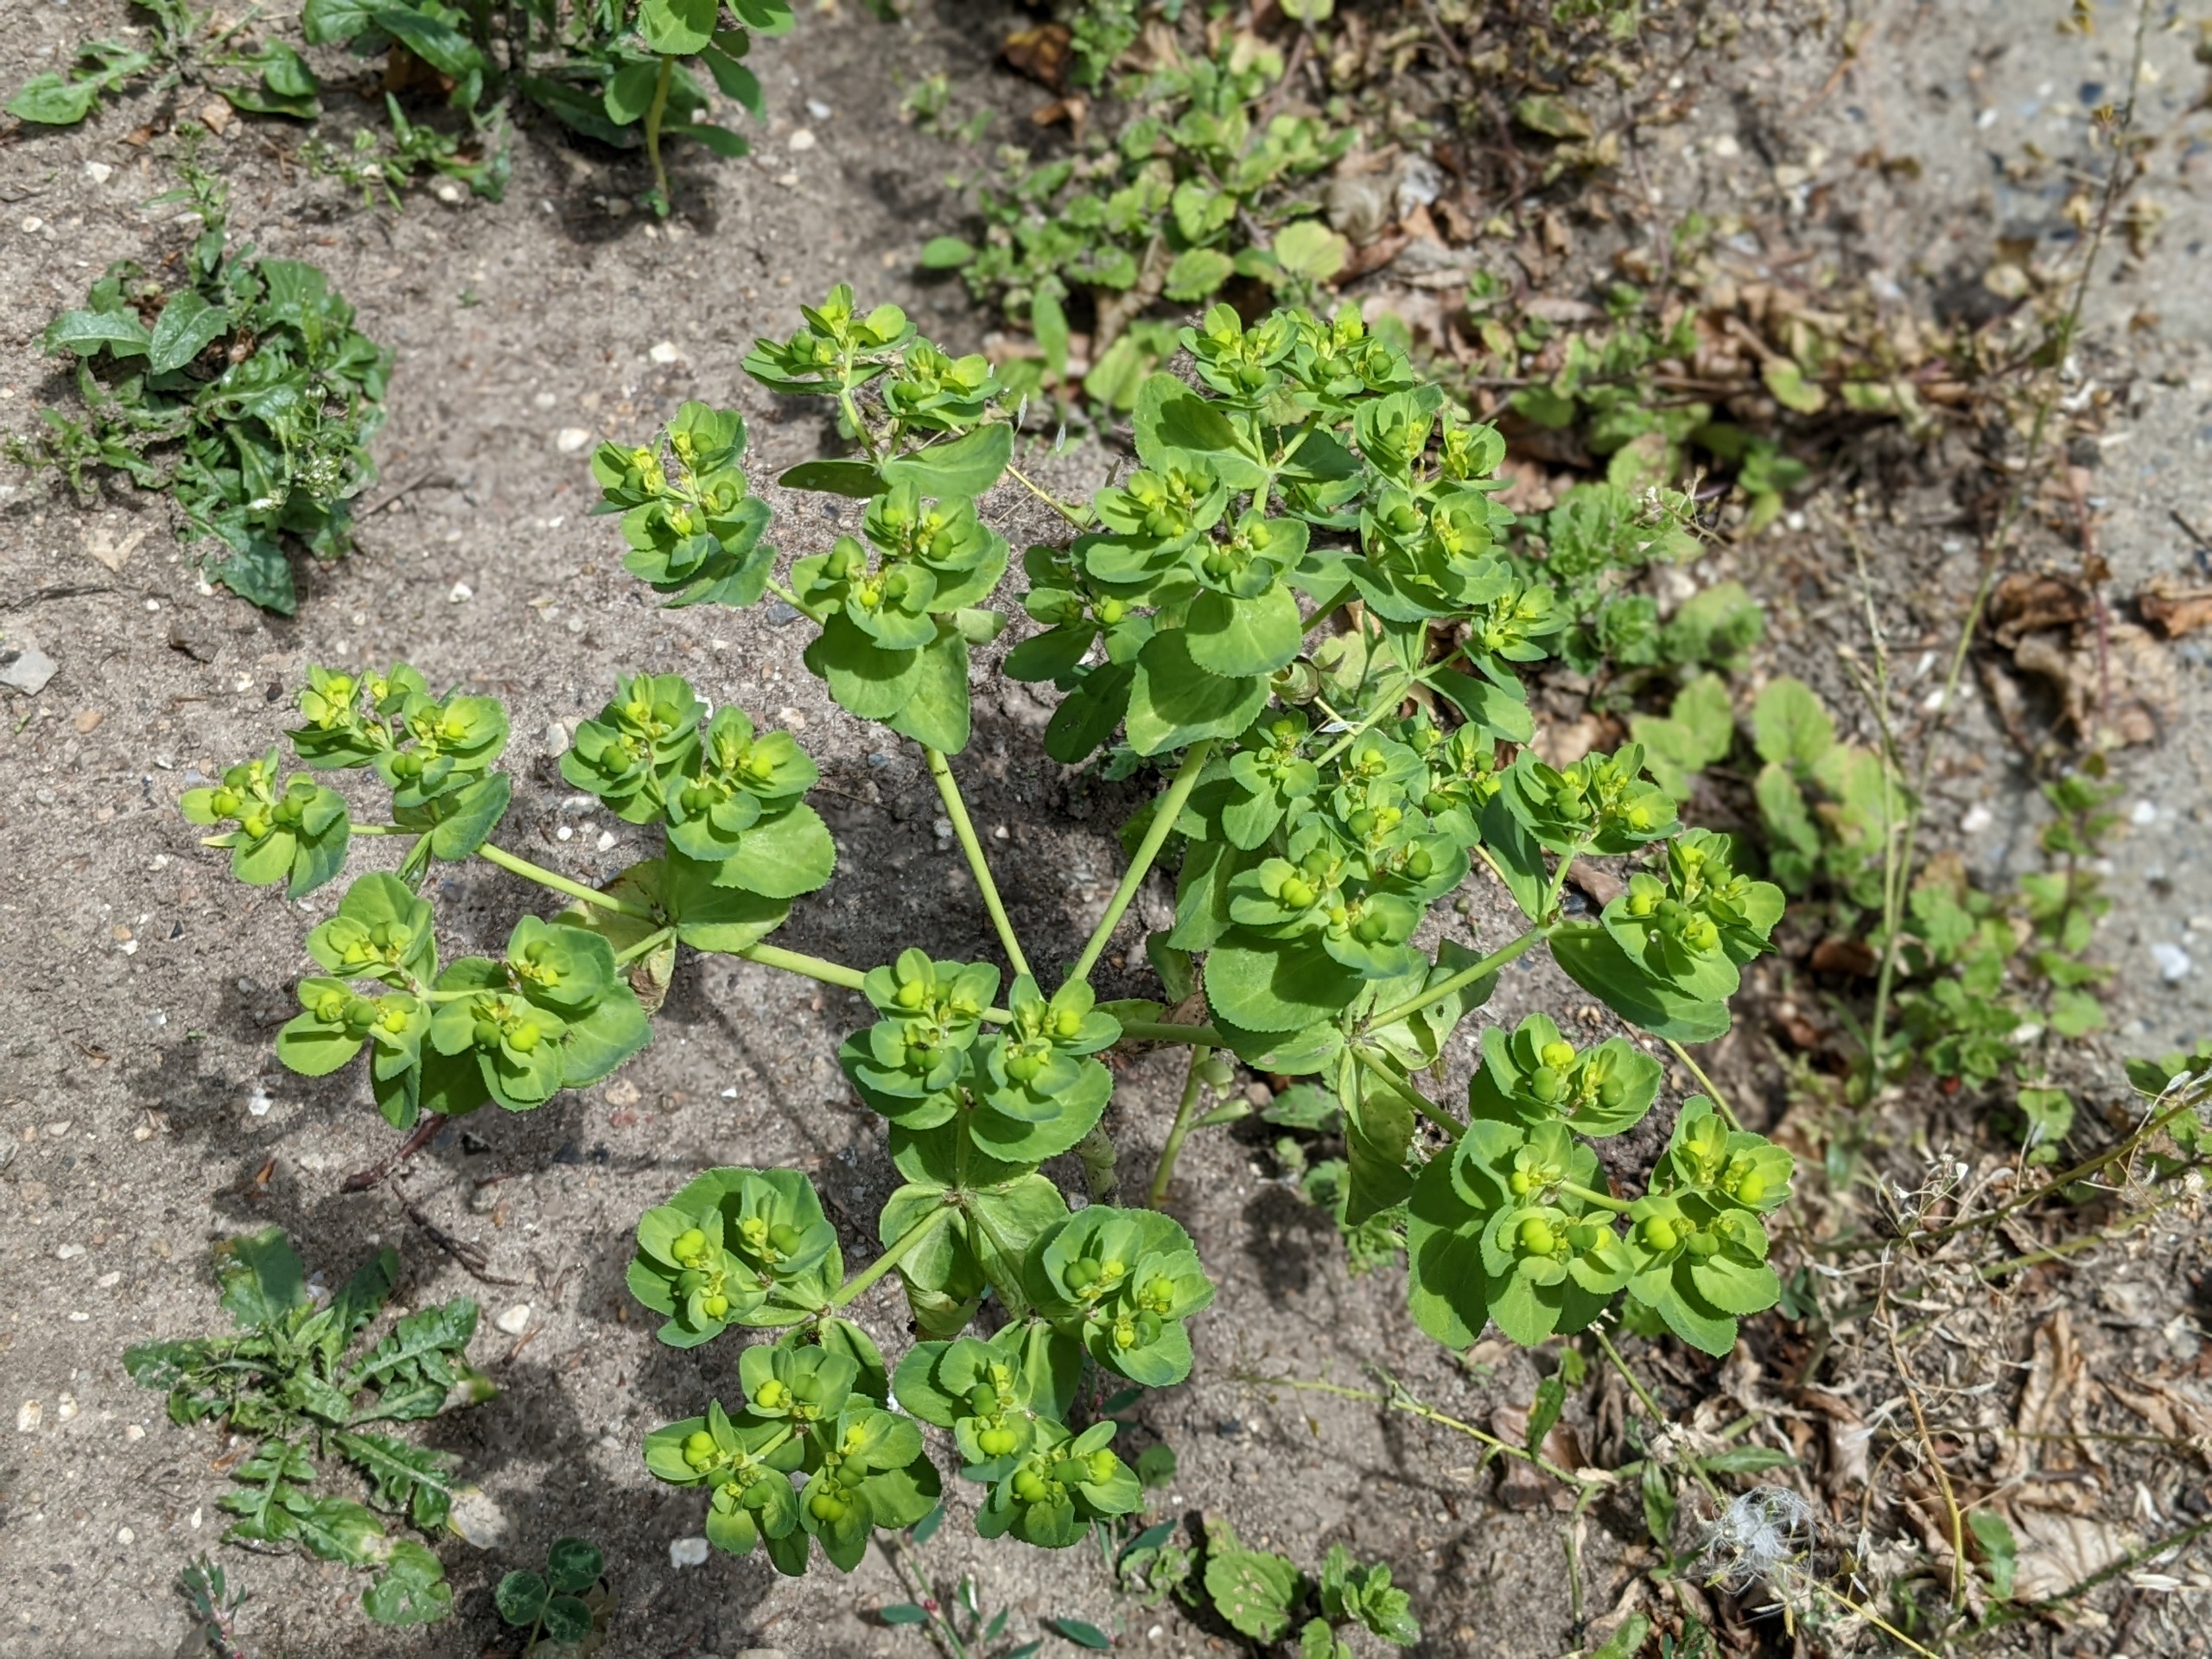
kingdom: Plantae
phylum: Tracheophyta
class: Magnoliopsida
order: Malpighiales
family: Euphorbiaceae
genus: Euphorbia
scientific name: Euphorbia helioscopia
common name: Skærm-vortemælk
